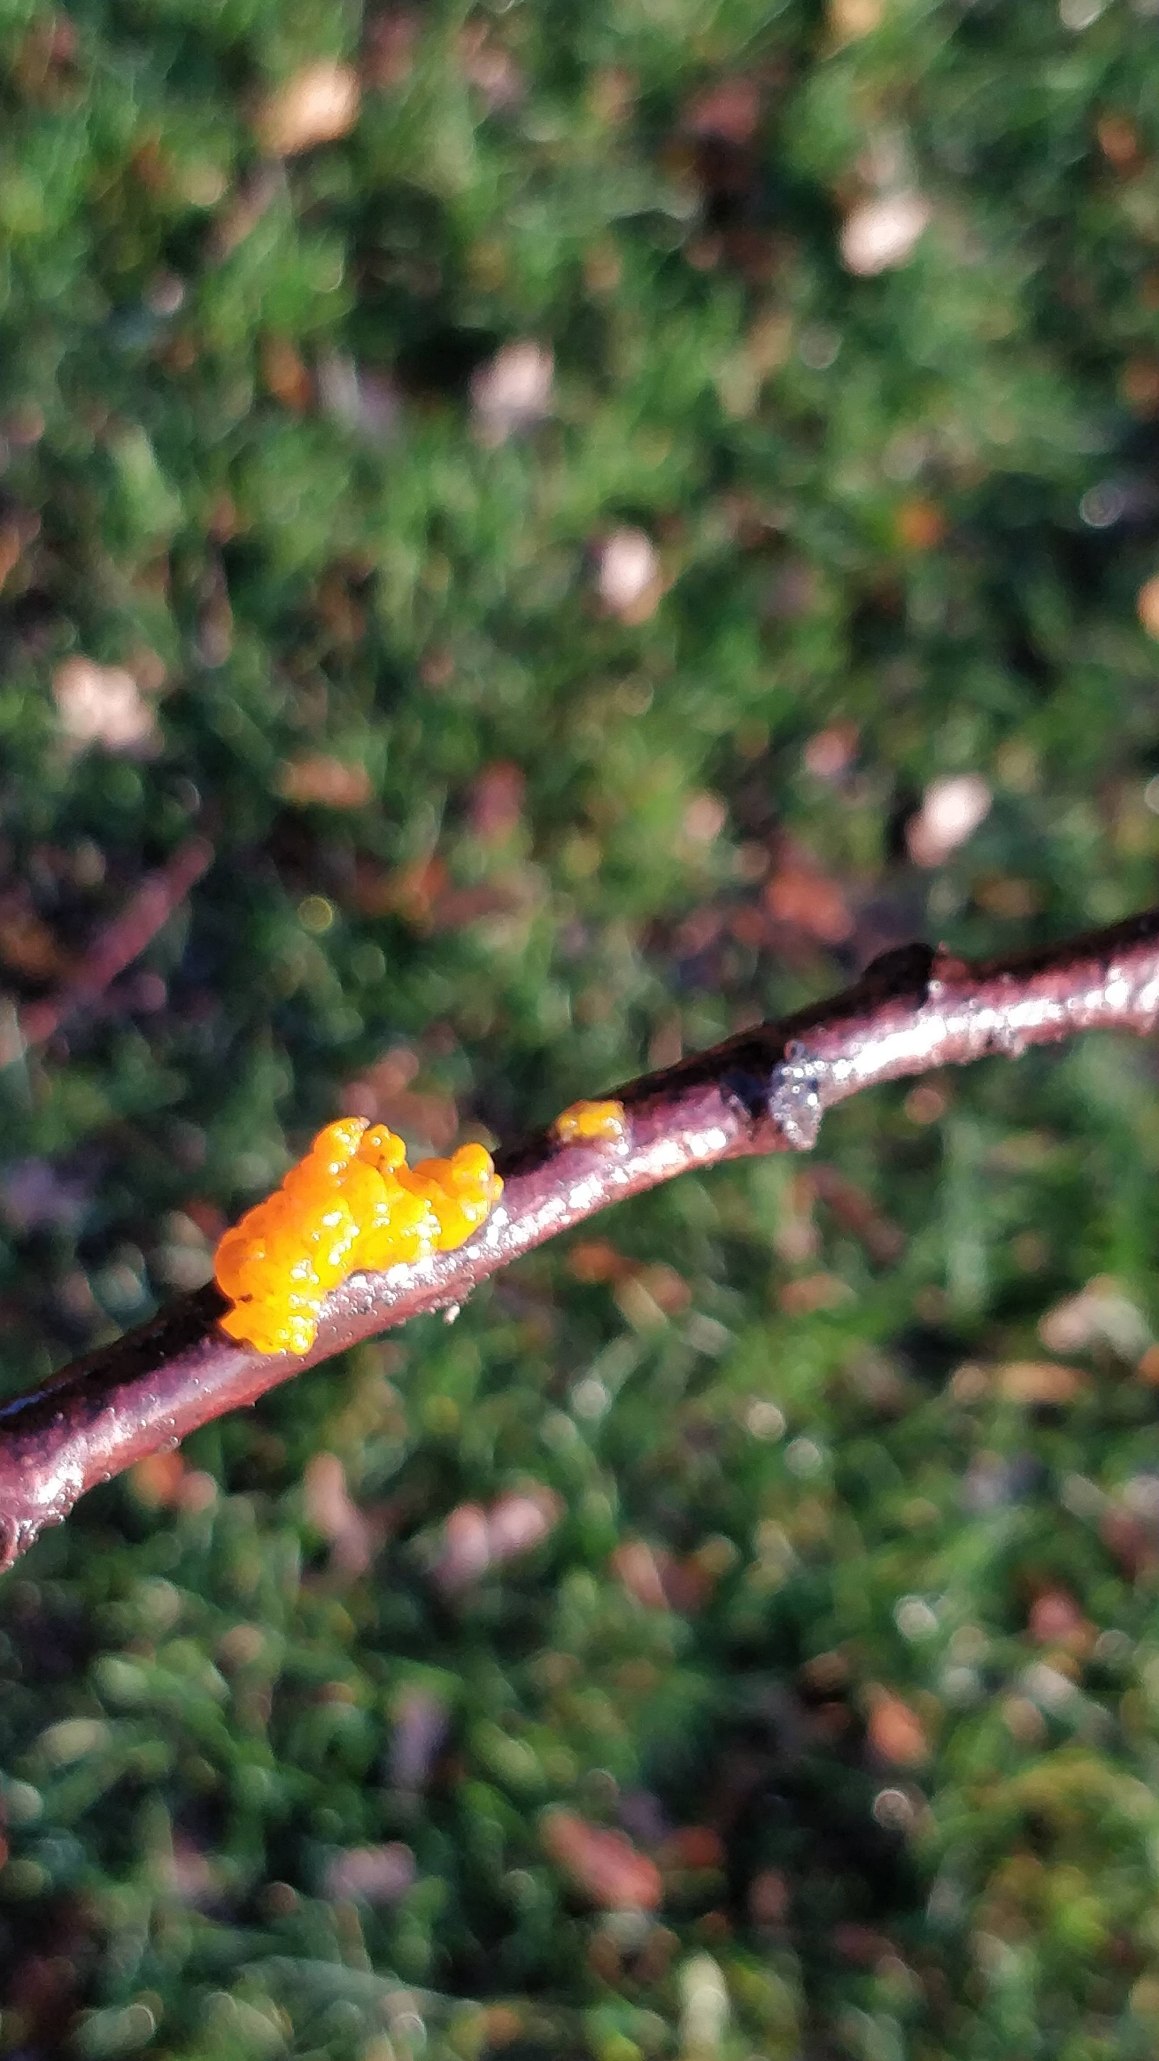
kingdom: Fungi
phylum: Basidiomycota
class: Tremellomycetes
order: Tremellales
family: Tremellaceae
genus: Tremella
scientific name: Tremella mesenterica
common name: Gul bævresvamp
